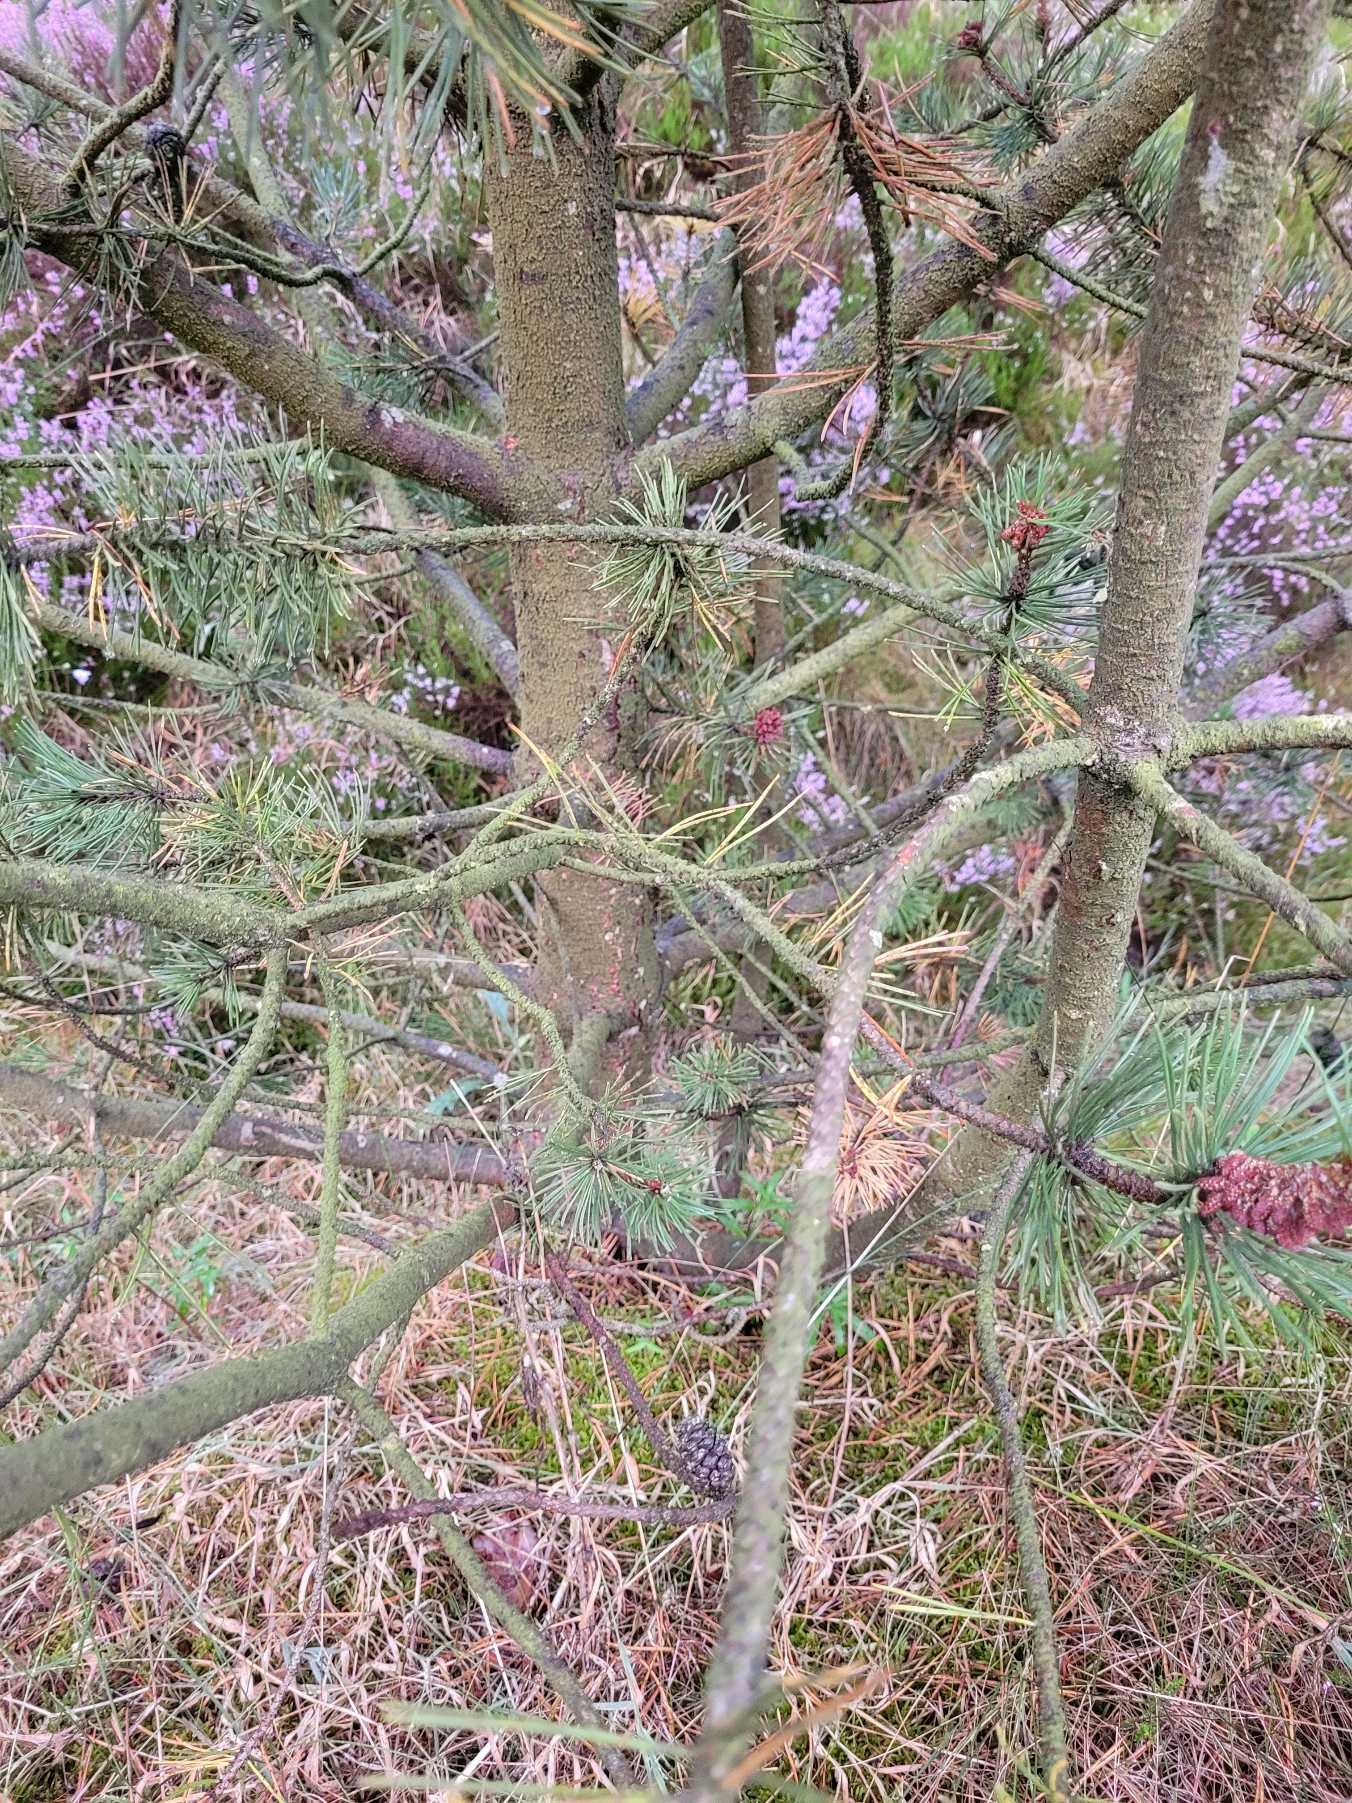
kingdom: Plantae
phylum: Tracheophyta
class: Pinopsida
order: Pinales
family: Pinaceae
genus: Pinus
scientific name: Pinus contorta
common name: Klit-fyr
